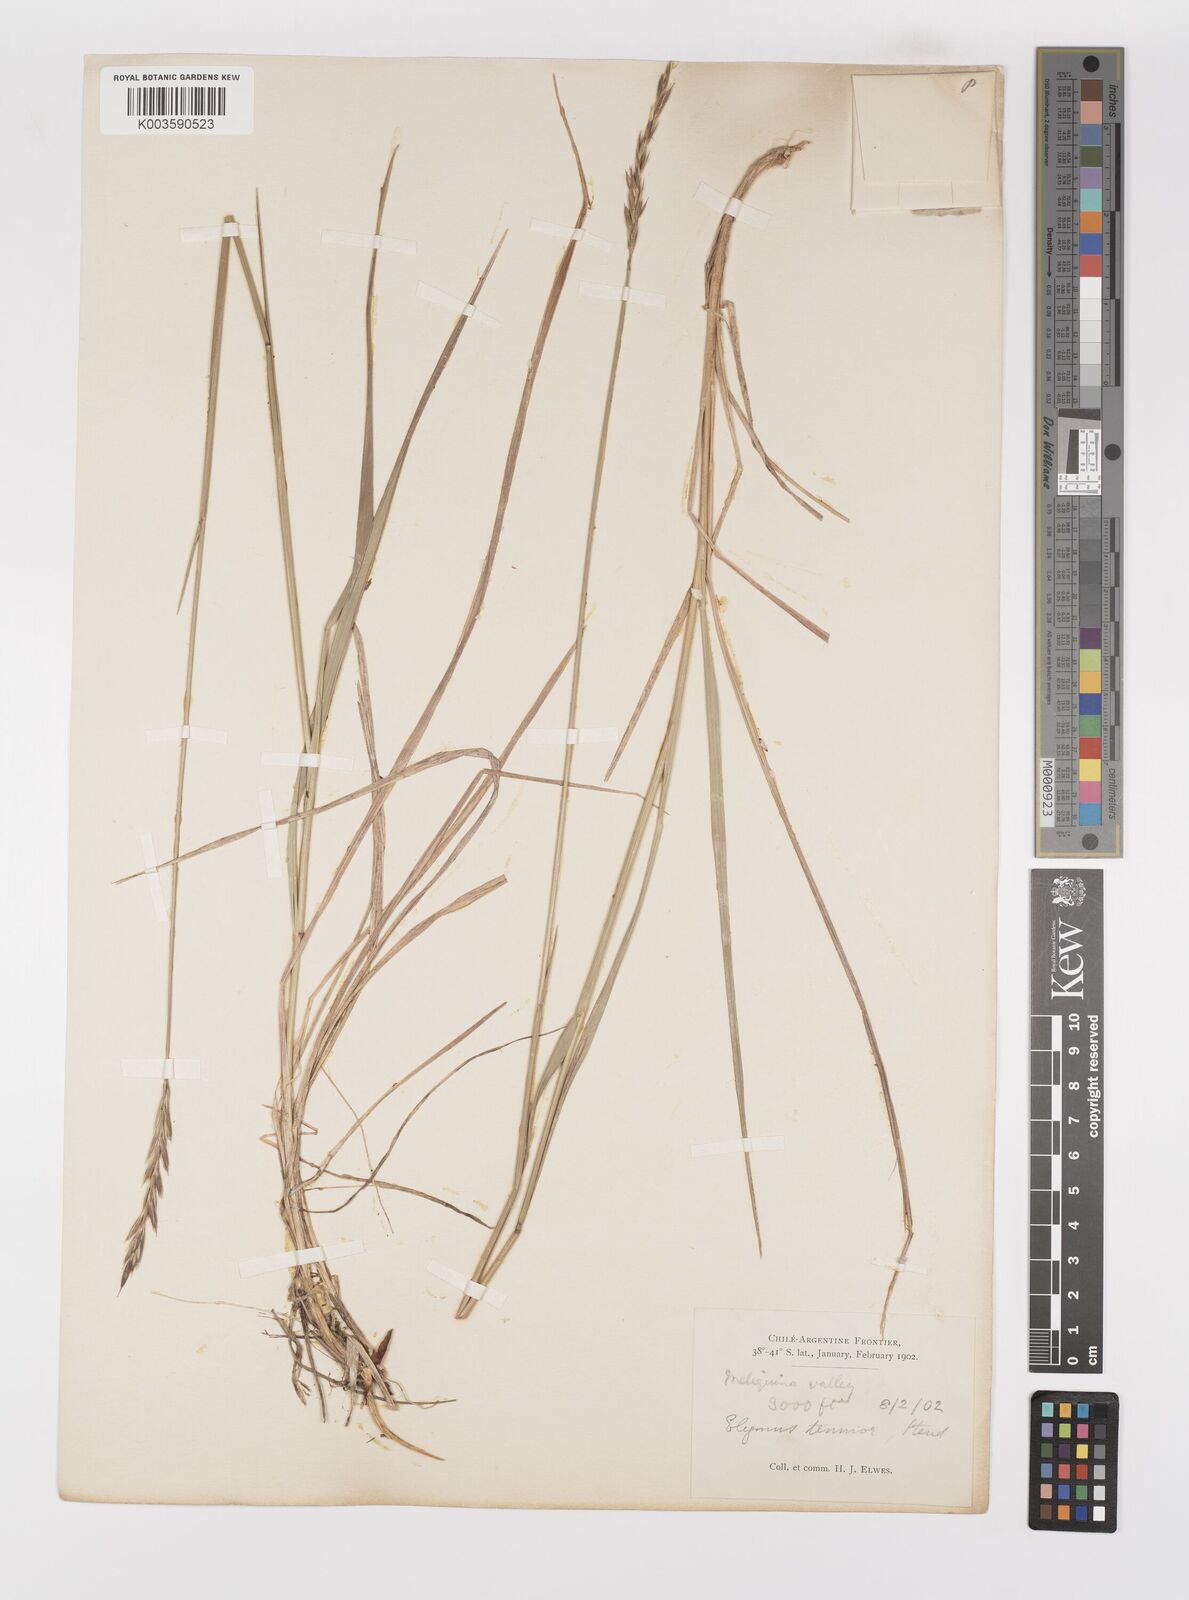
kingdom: Plantae
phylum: Tracheophyta
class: Liliopsida
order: Poales
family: Poaceae
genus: Elymus
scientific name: Elymus
